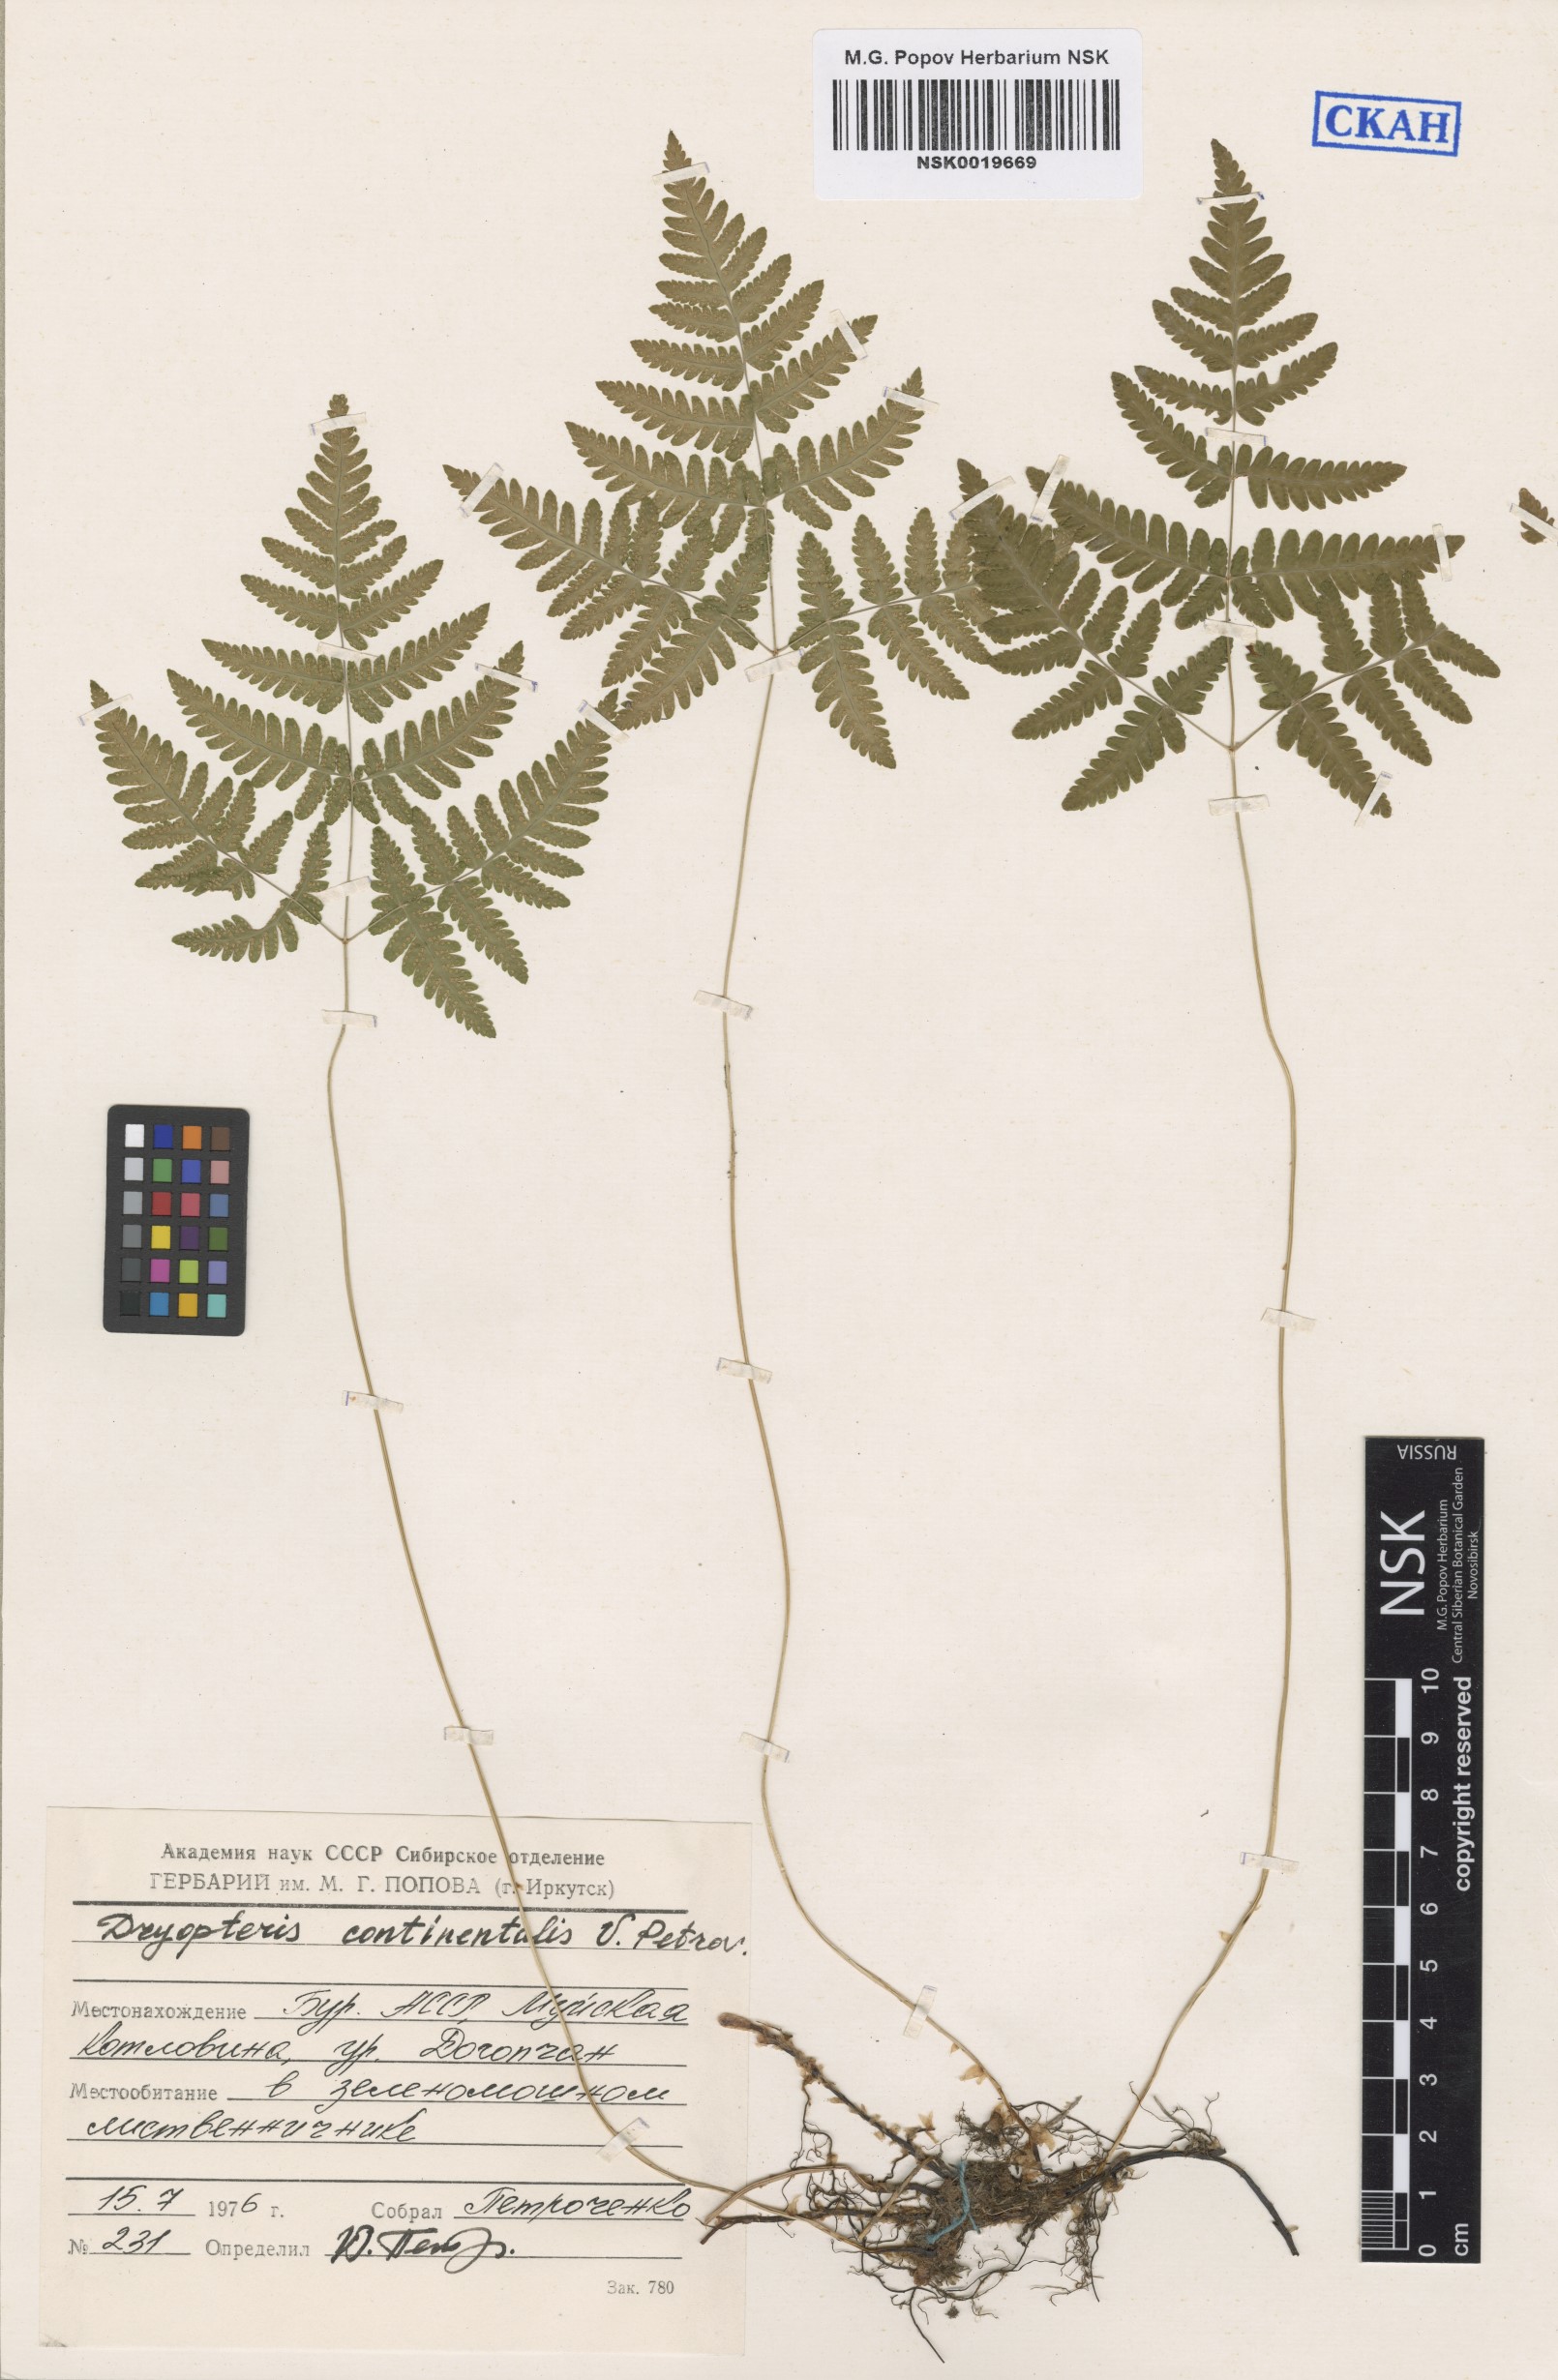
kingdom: Plantae
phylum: Tracheophyta
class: Polypodiopsida
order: Polypodiales
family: Cystopteridaceae
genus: Gymnocarpium
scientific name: Gymnocarpium continentale
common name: Asian oak fern
